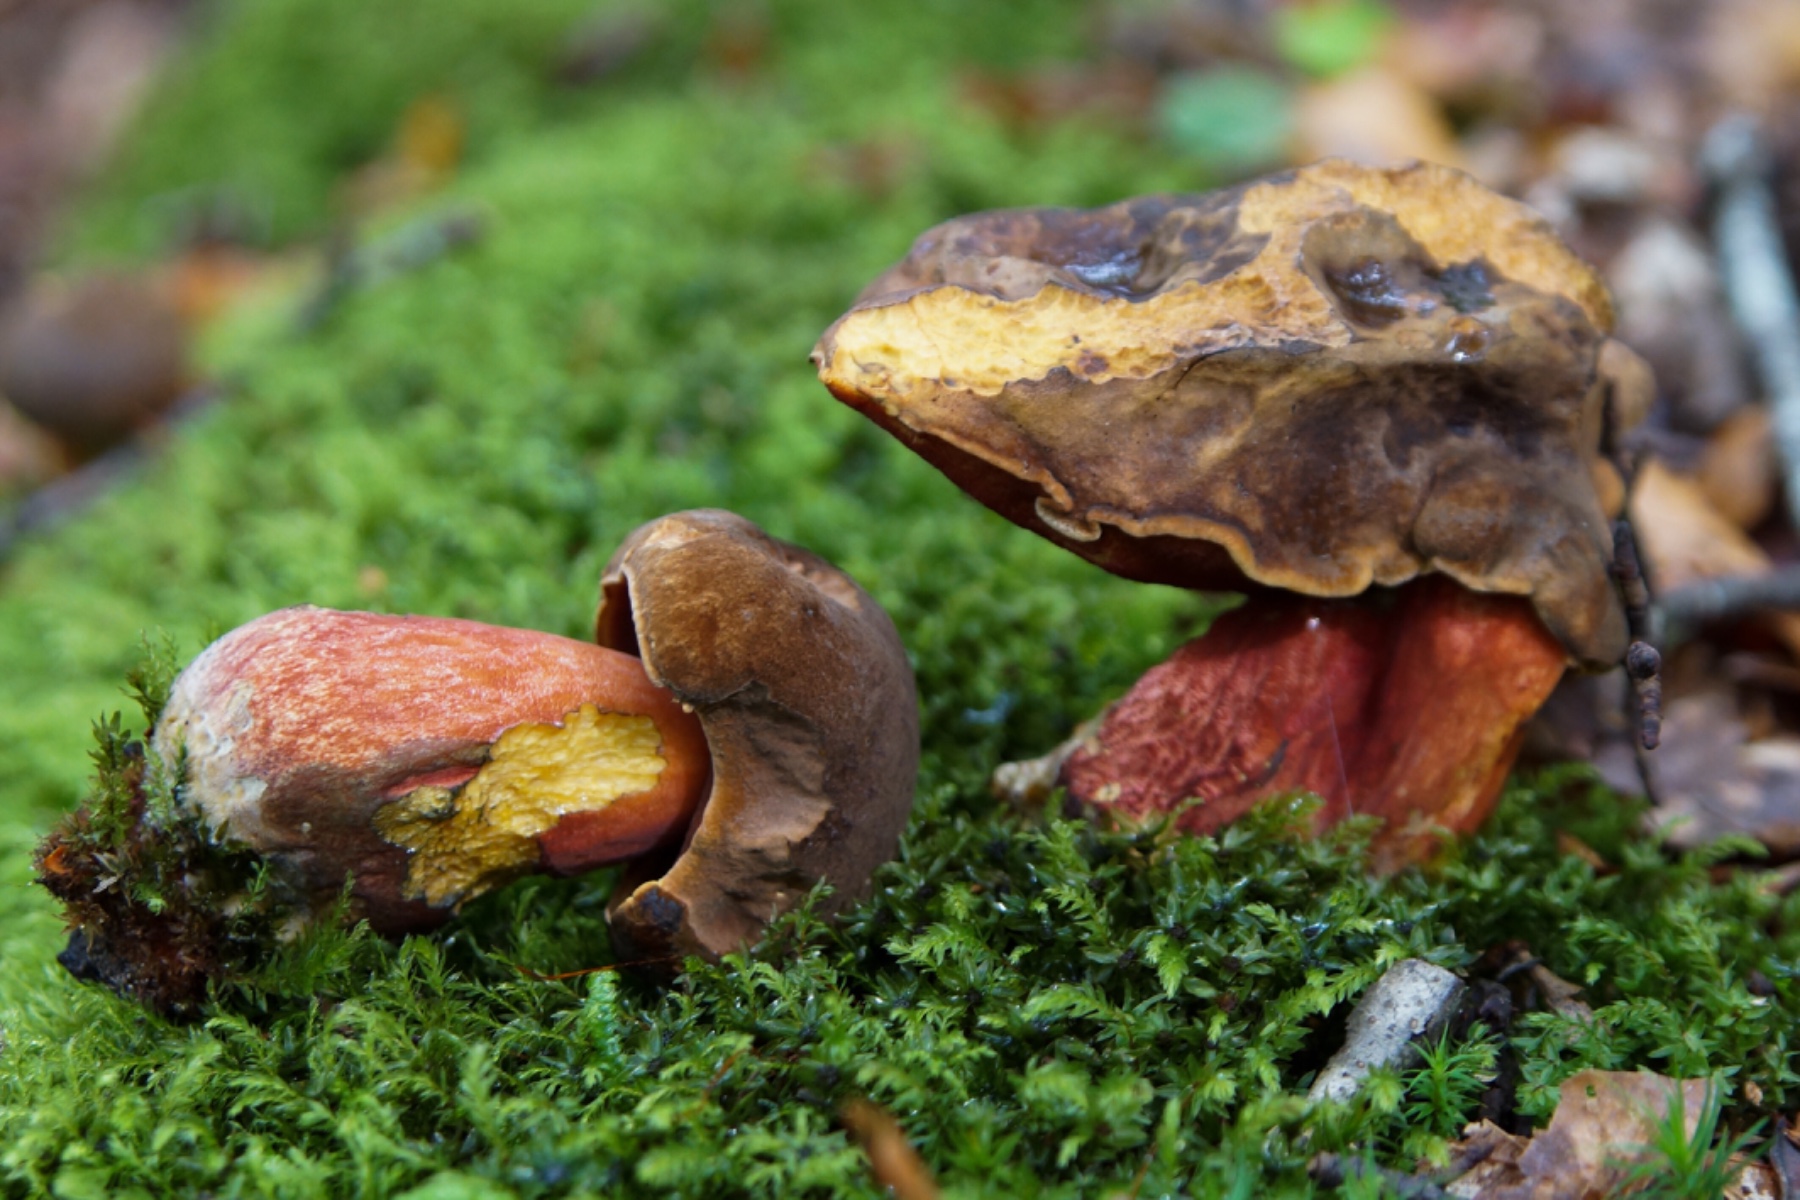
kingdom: Fungi
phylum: Basidiomycota
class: Agaricomycetes
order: Boletales
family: Boletaceae
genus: Neoboletus
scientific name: Neoboletus erythropus
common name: punktstokket indigorørhat
